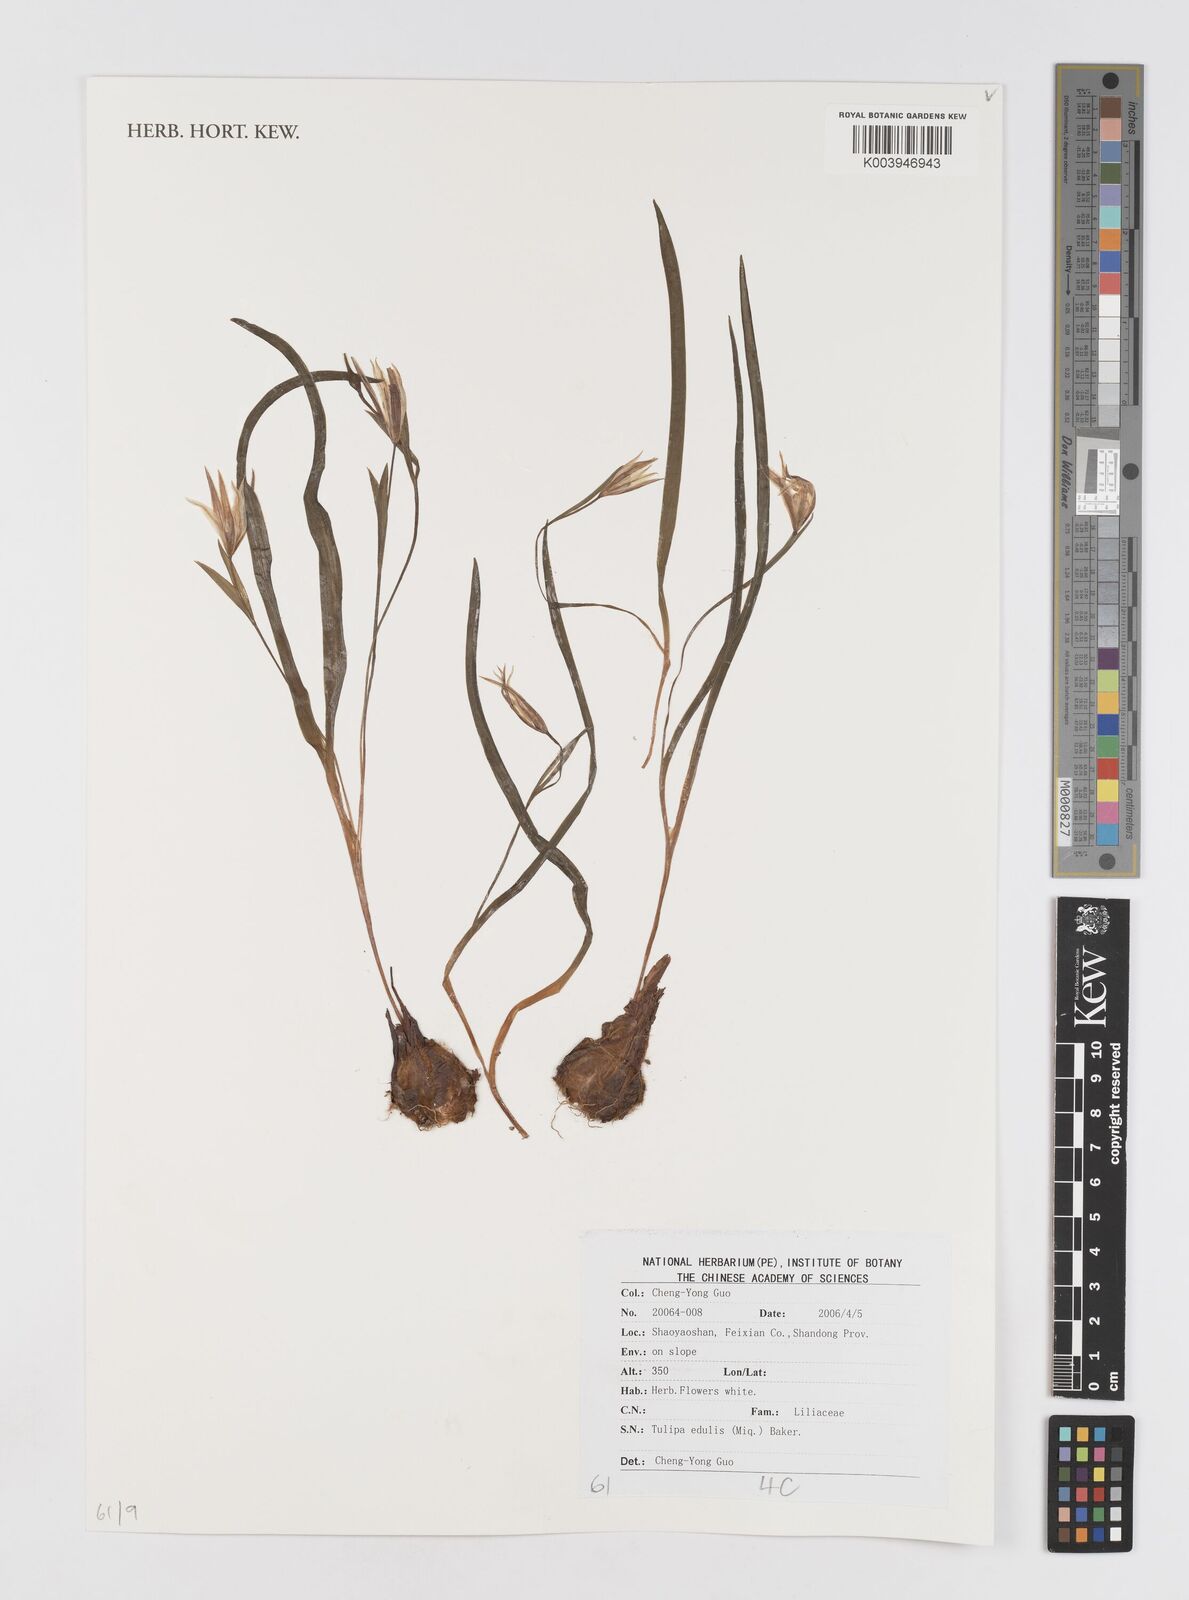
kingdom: Plantae
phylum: Tracheophyta
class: Liliopsida
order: Liliales
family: Liliaceae
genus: Amana
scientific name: Amana edulis
